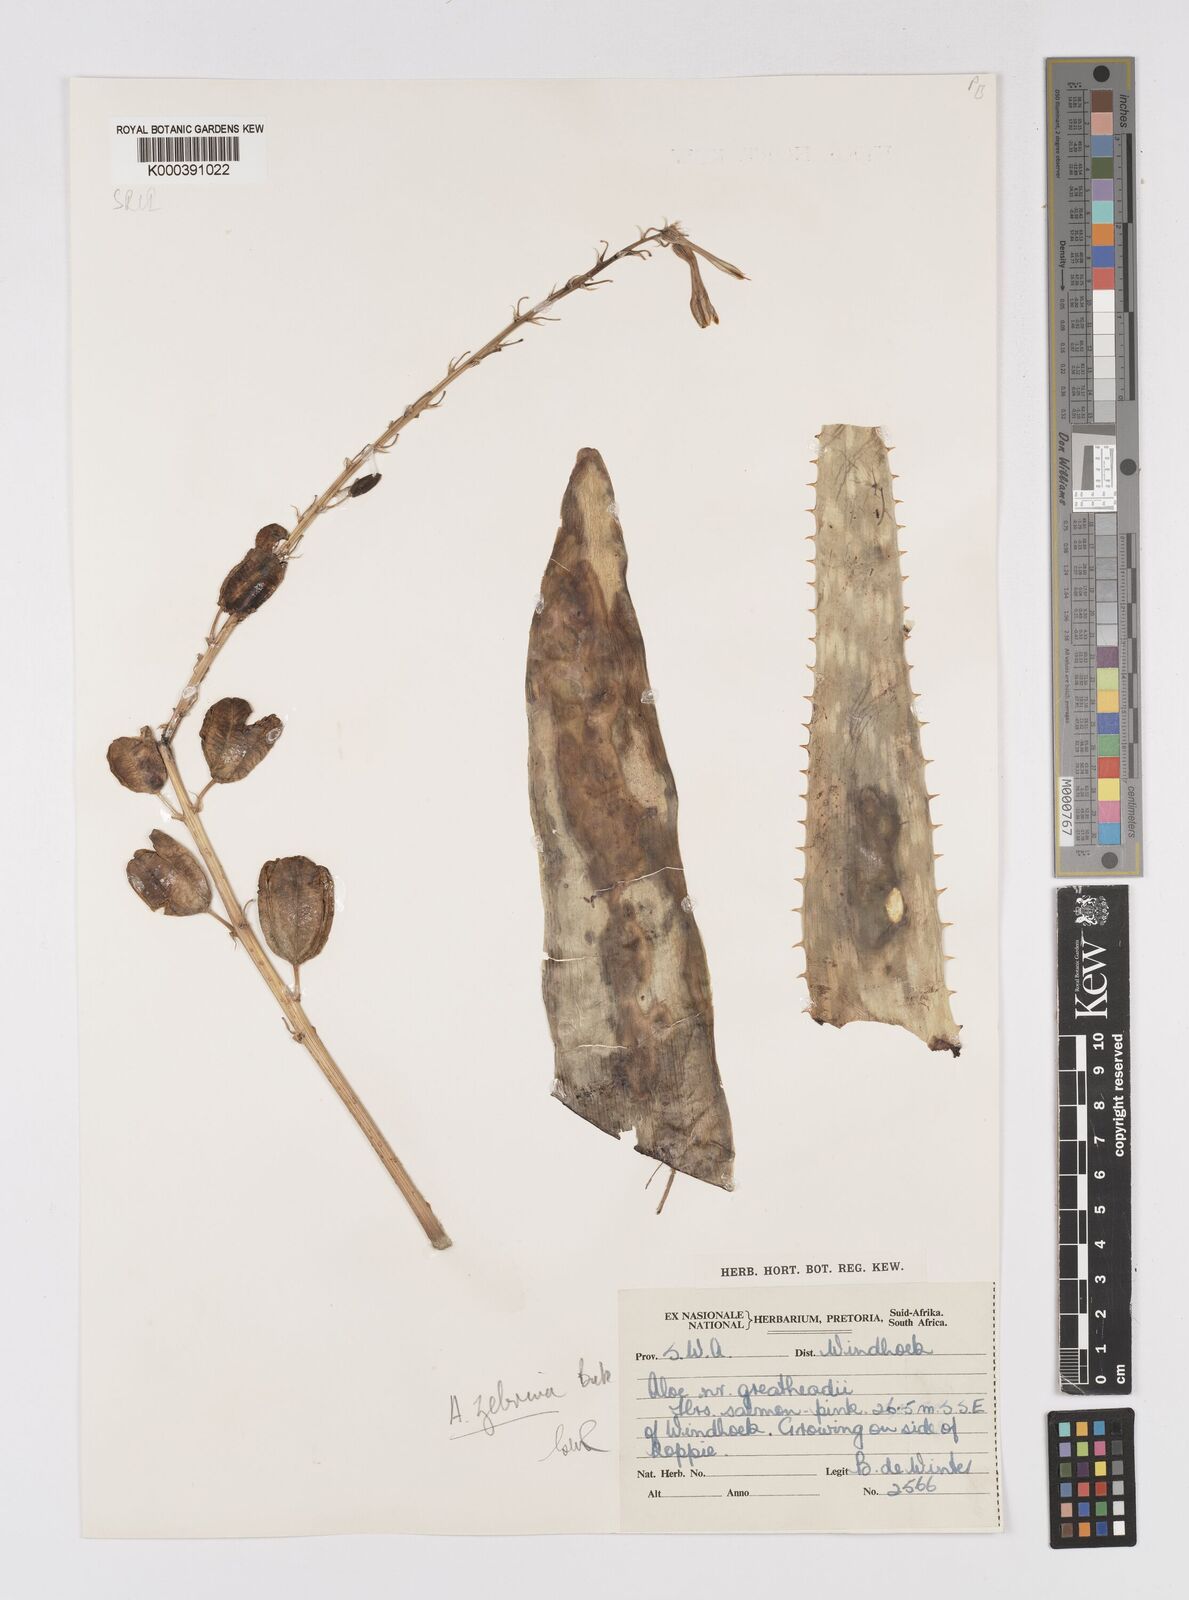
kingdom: Plantae
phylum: Tracheophyta
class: Liliopsida
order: Asparagales
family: Asphodelaceae
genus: Aloe
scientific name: Aloe zebrina
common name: Zebra-leaf aloe
